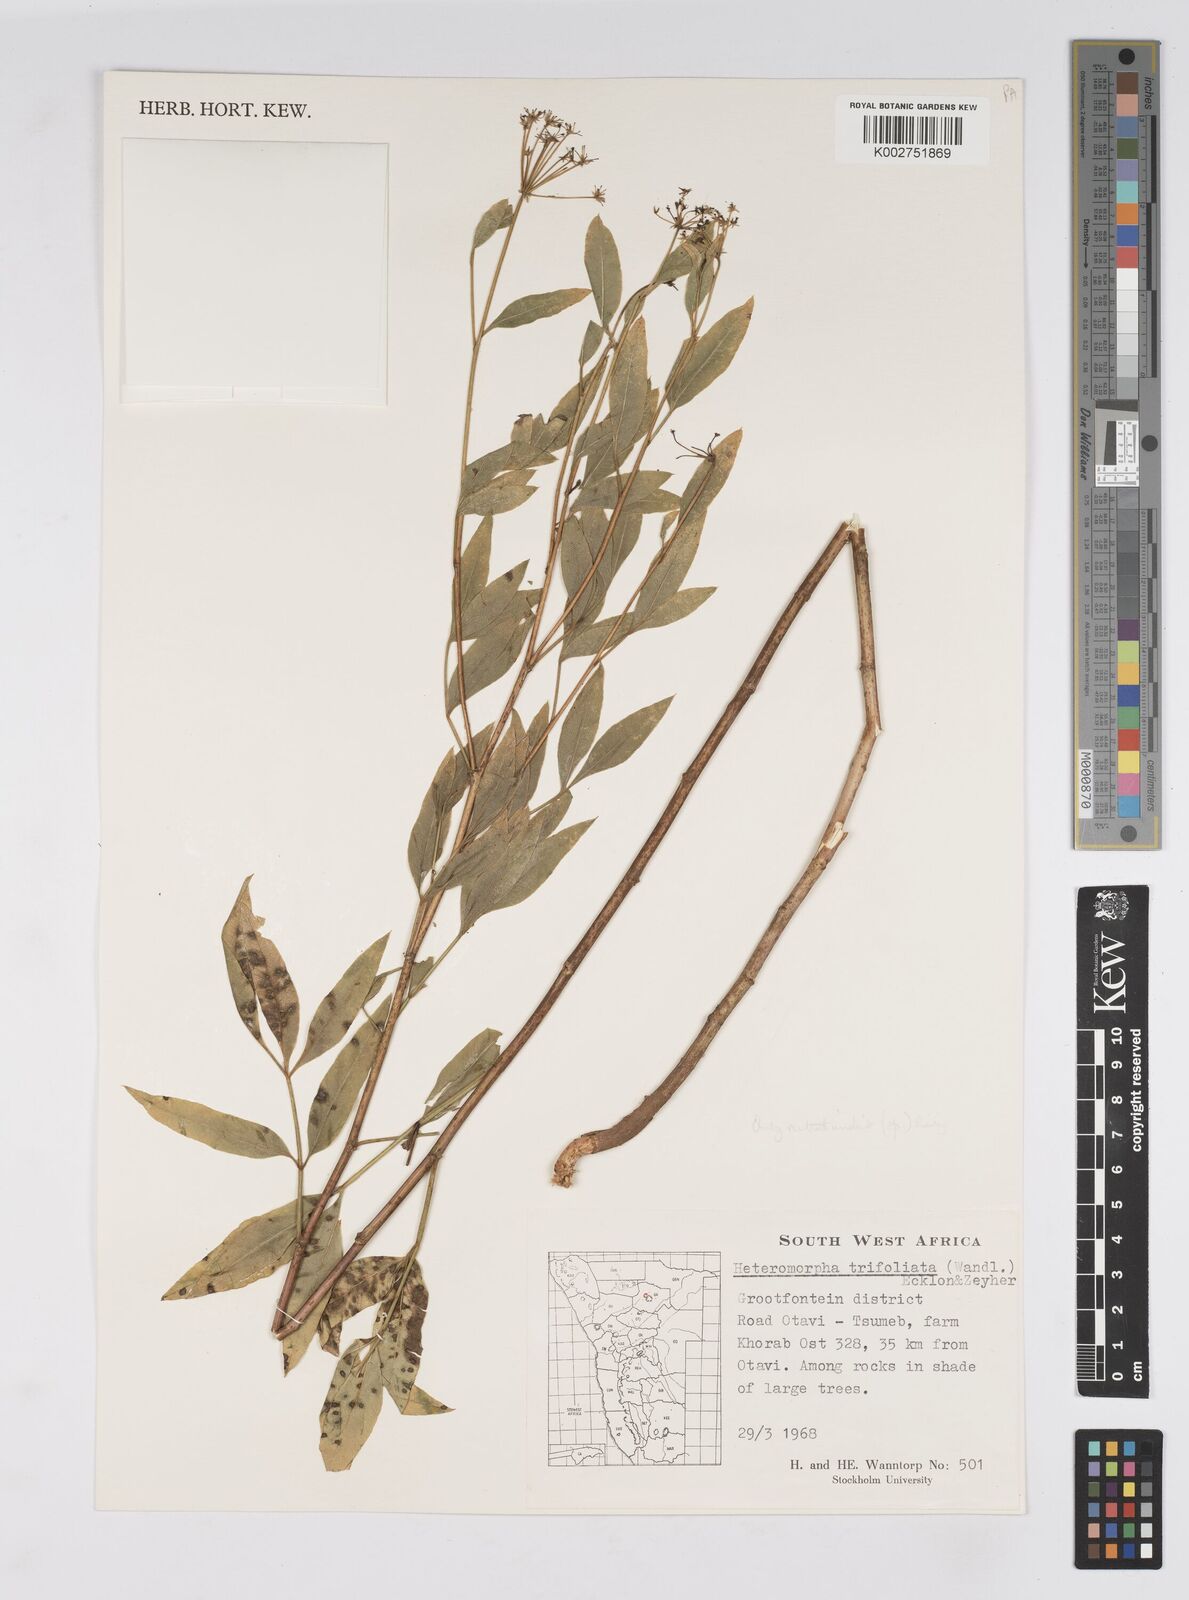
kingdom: Plantae
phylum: Tracheophyta
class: Magnoliopsida
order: Apiales
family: Apiaceae
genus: Heteromorpha
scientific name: Heteromorpha arborescens
